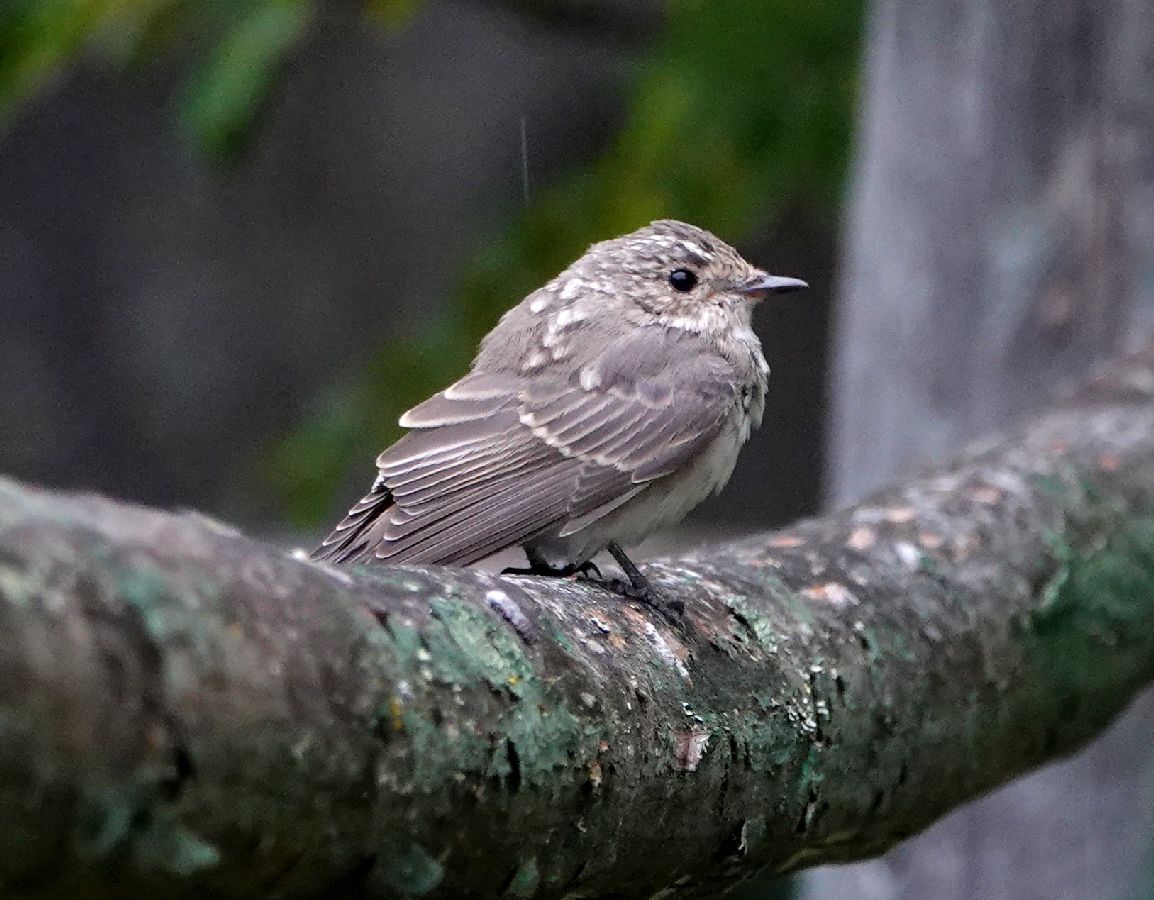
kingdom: Animalia
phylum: Chordata
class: Aves
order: Passeriformes
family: Muscicapidae
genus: Muscicapa
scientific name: Muscicapa striata
